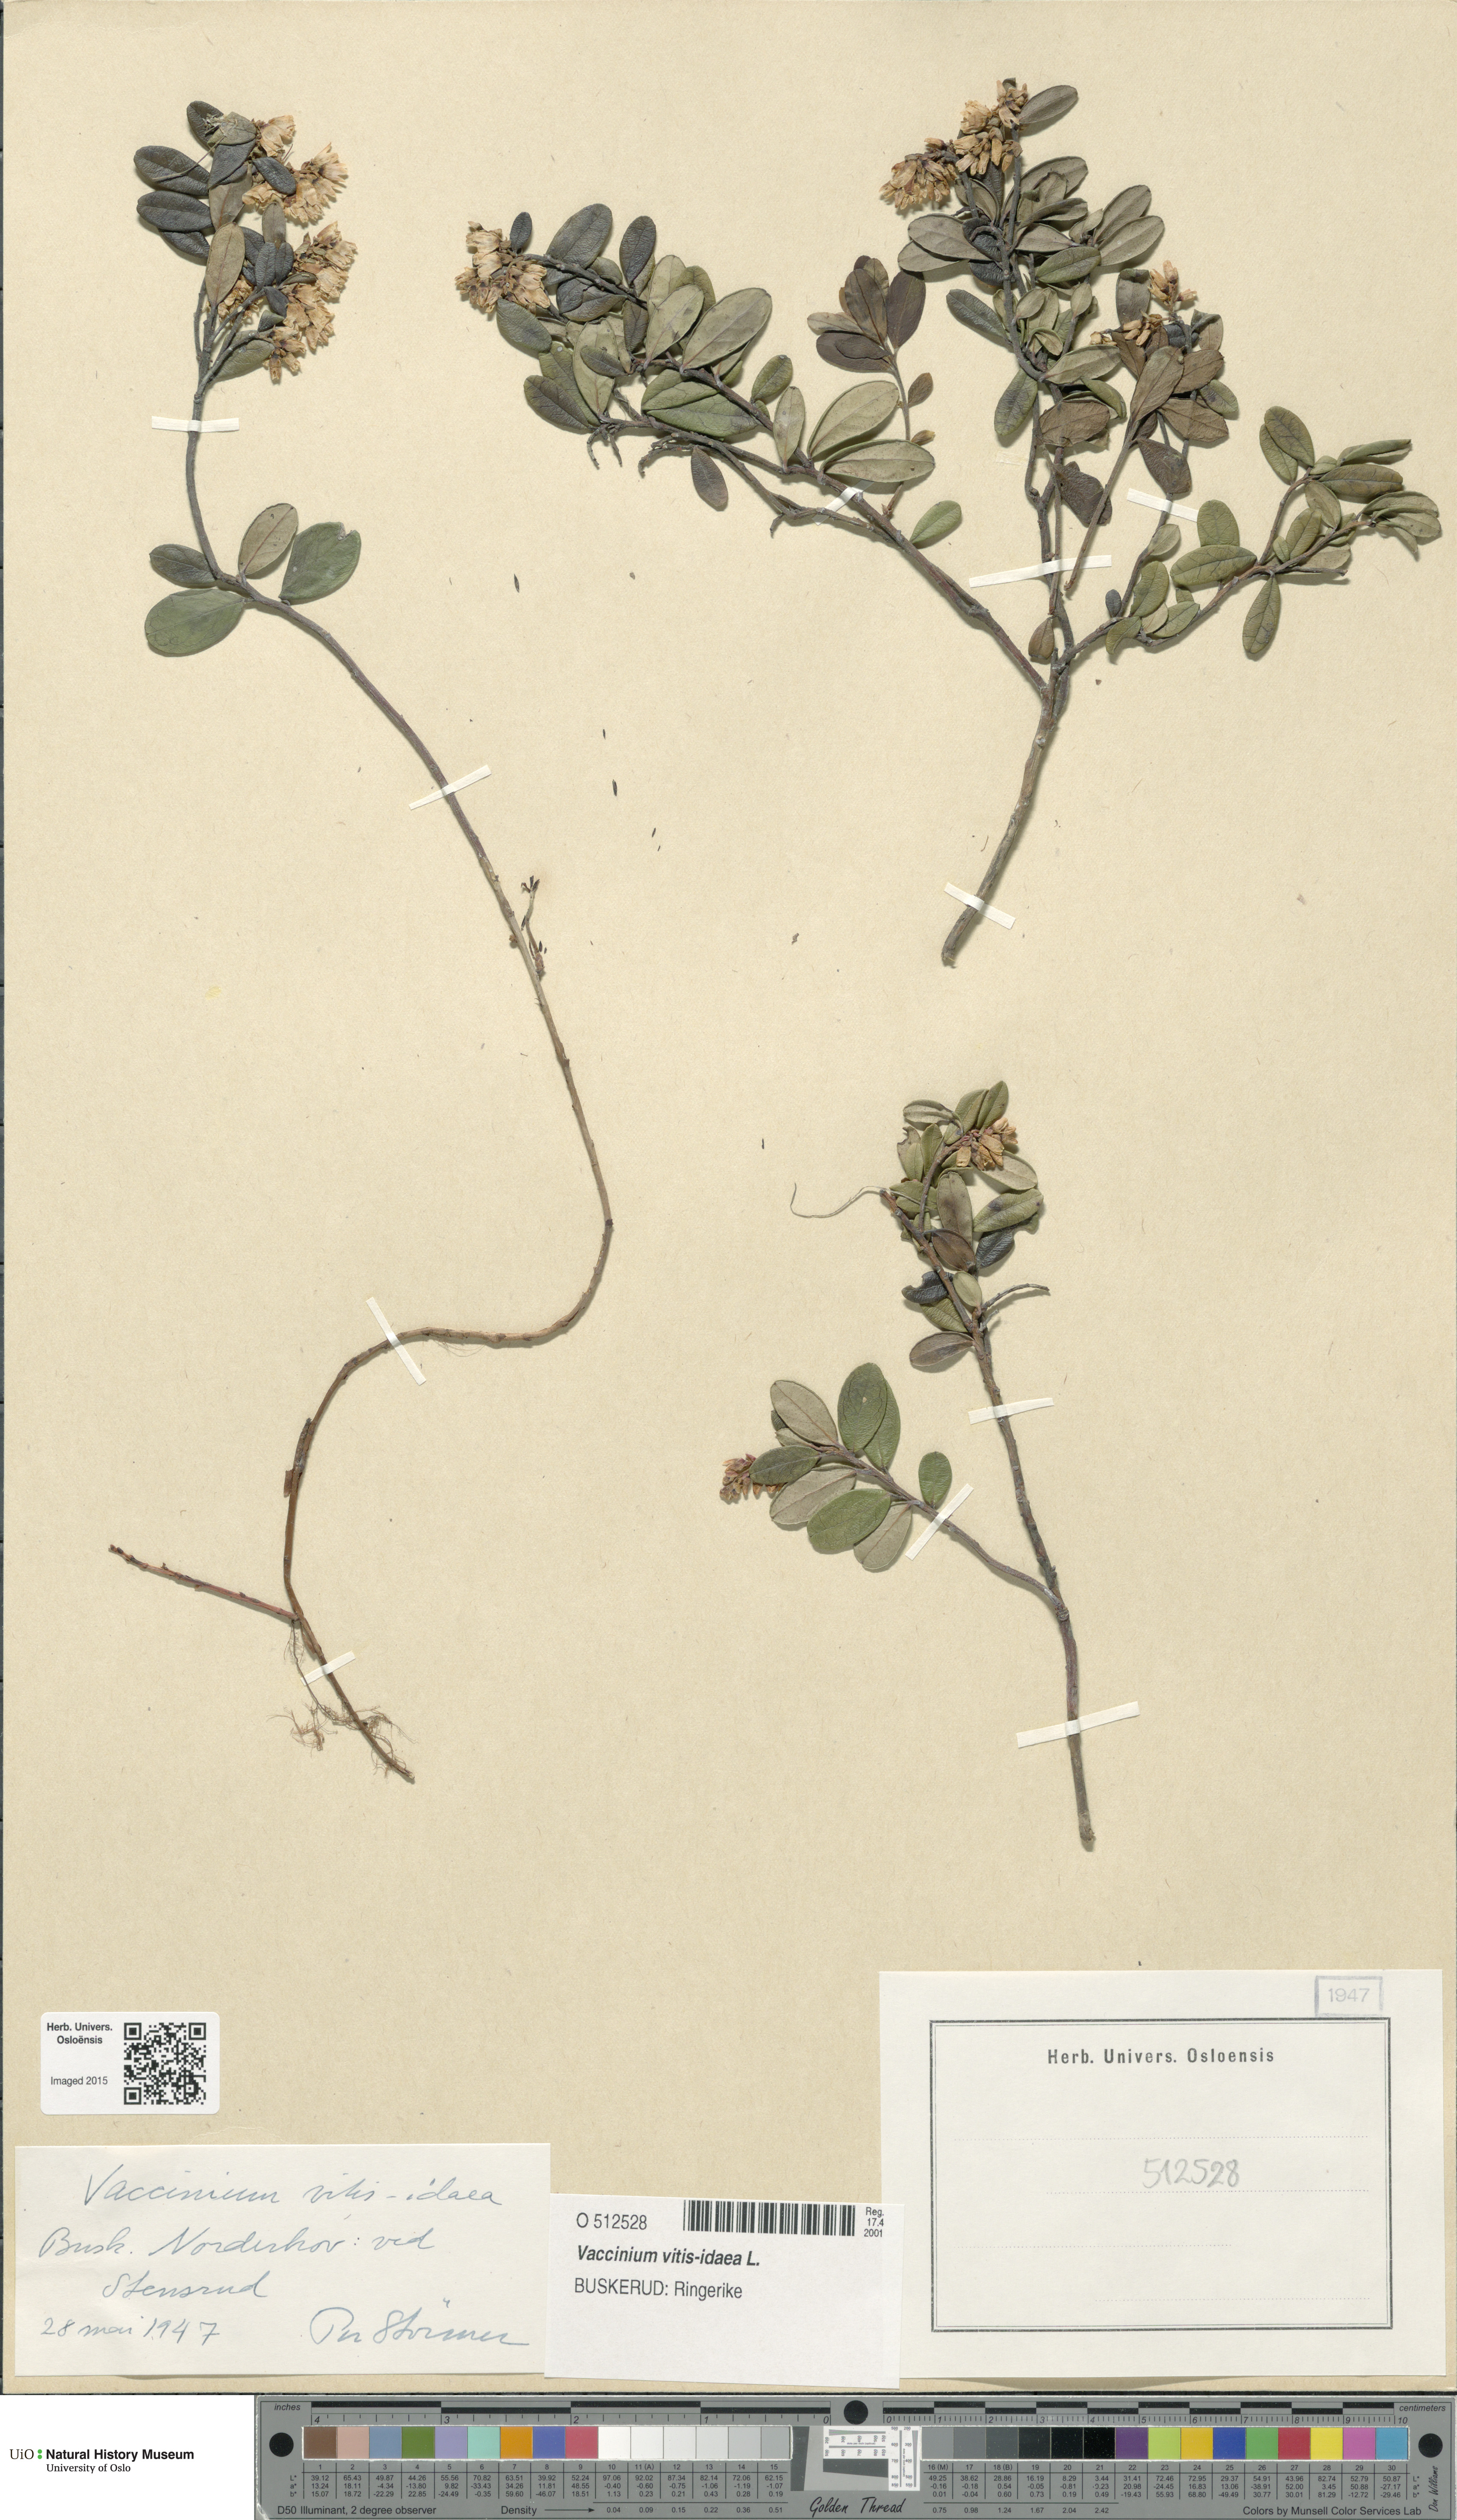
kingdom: Plantae
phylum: Tracheophyta
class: Magnoliopsida
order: Ericales
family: Ericaceae
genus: Vaccinium
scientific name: Vaccinium vitis-idaea
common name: Cowberry
